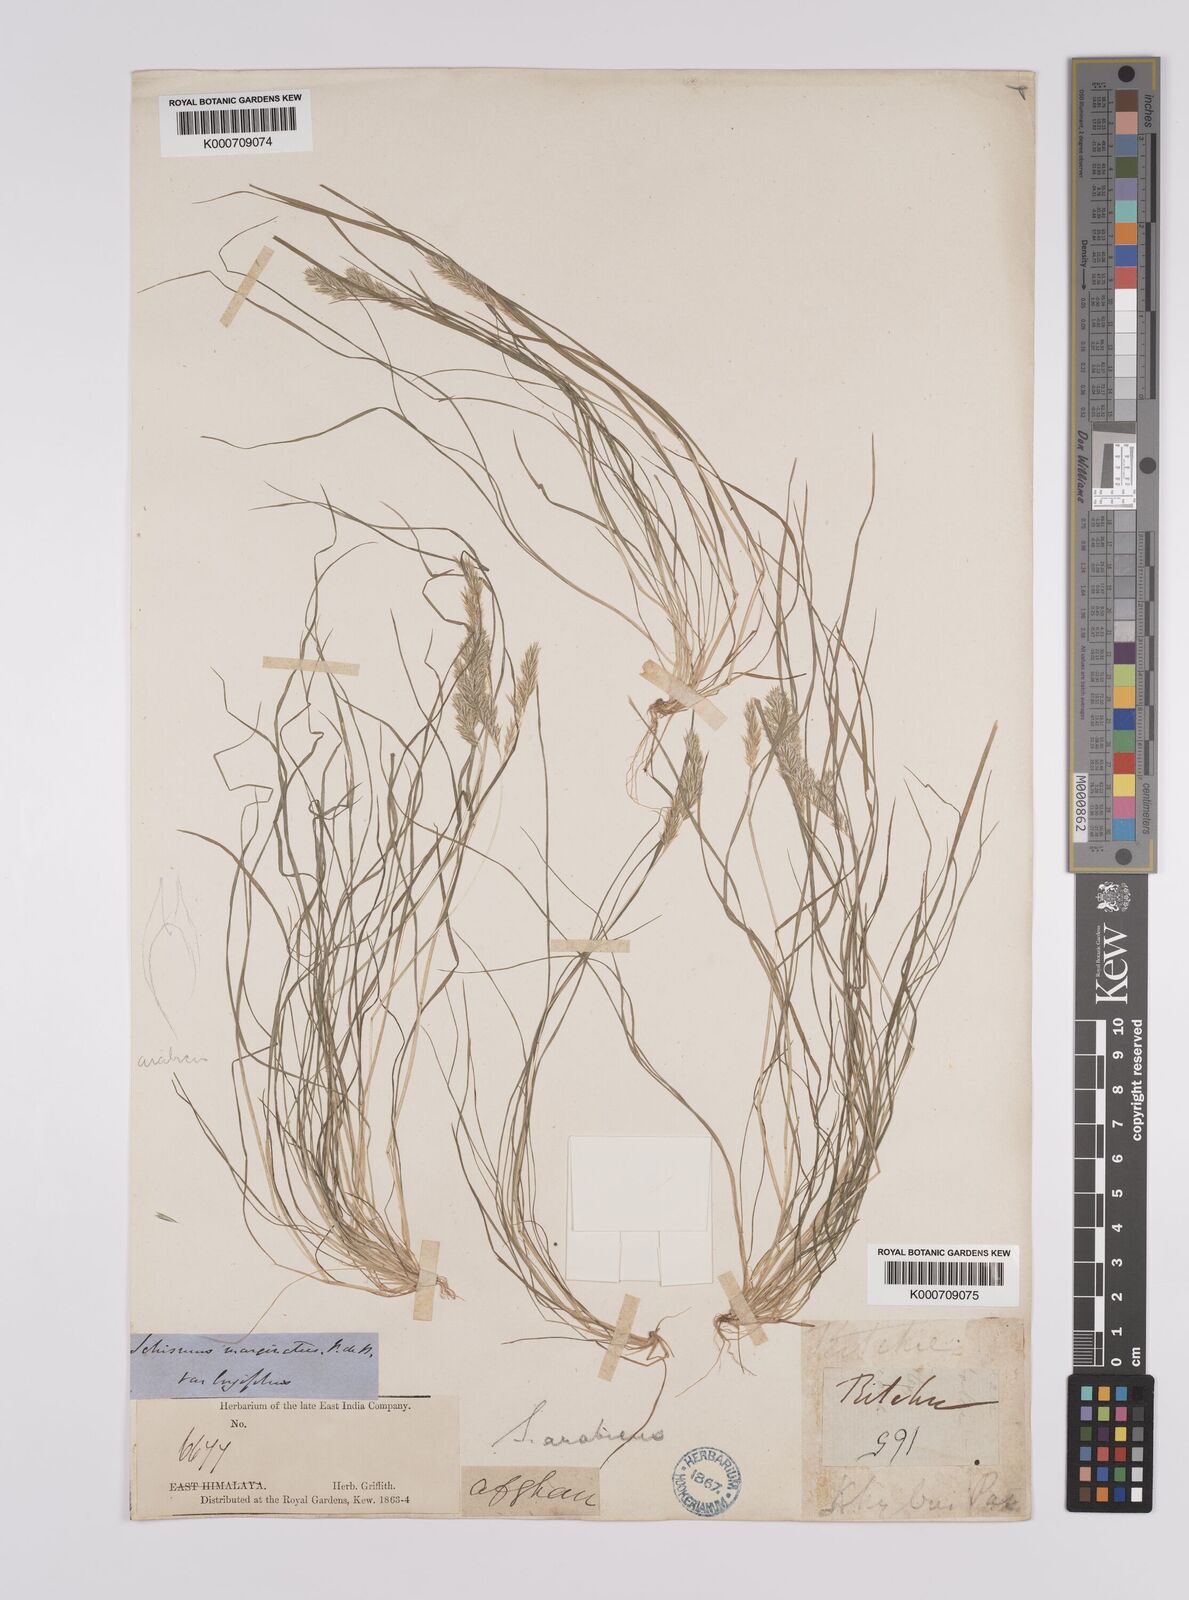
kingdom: Plantae
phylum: Tracheophyta
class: Liliopsida
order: Poales
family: Poaceae
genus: Schismus
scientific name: Schismus arabicus
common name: Arabian schismus
